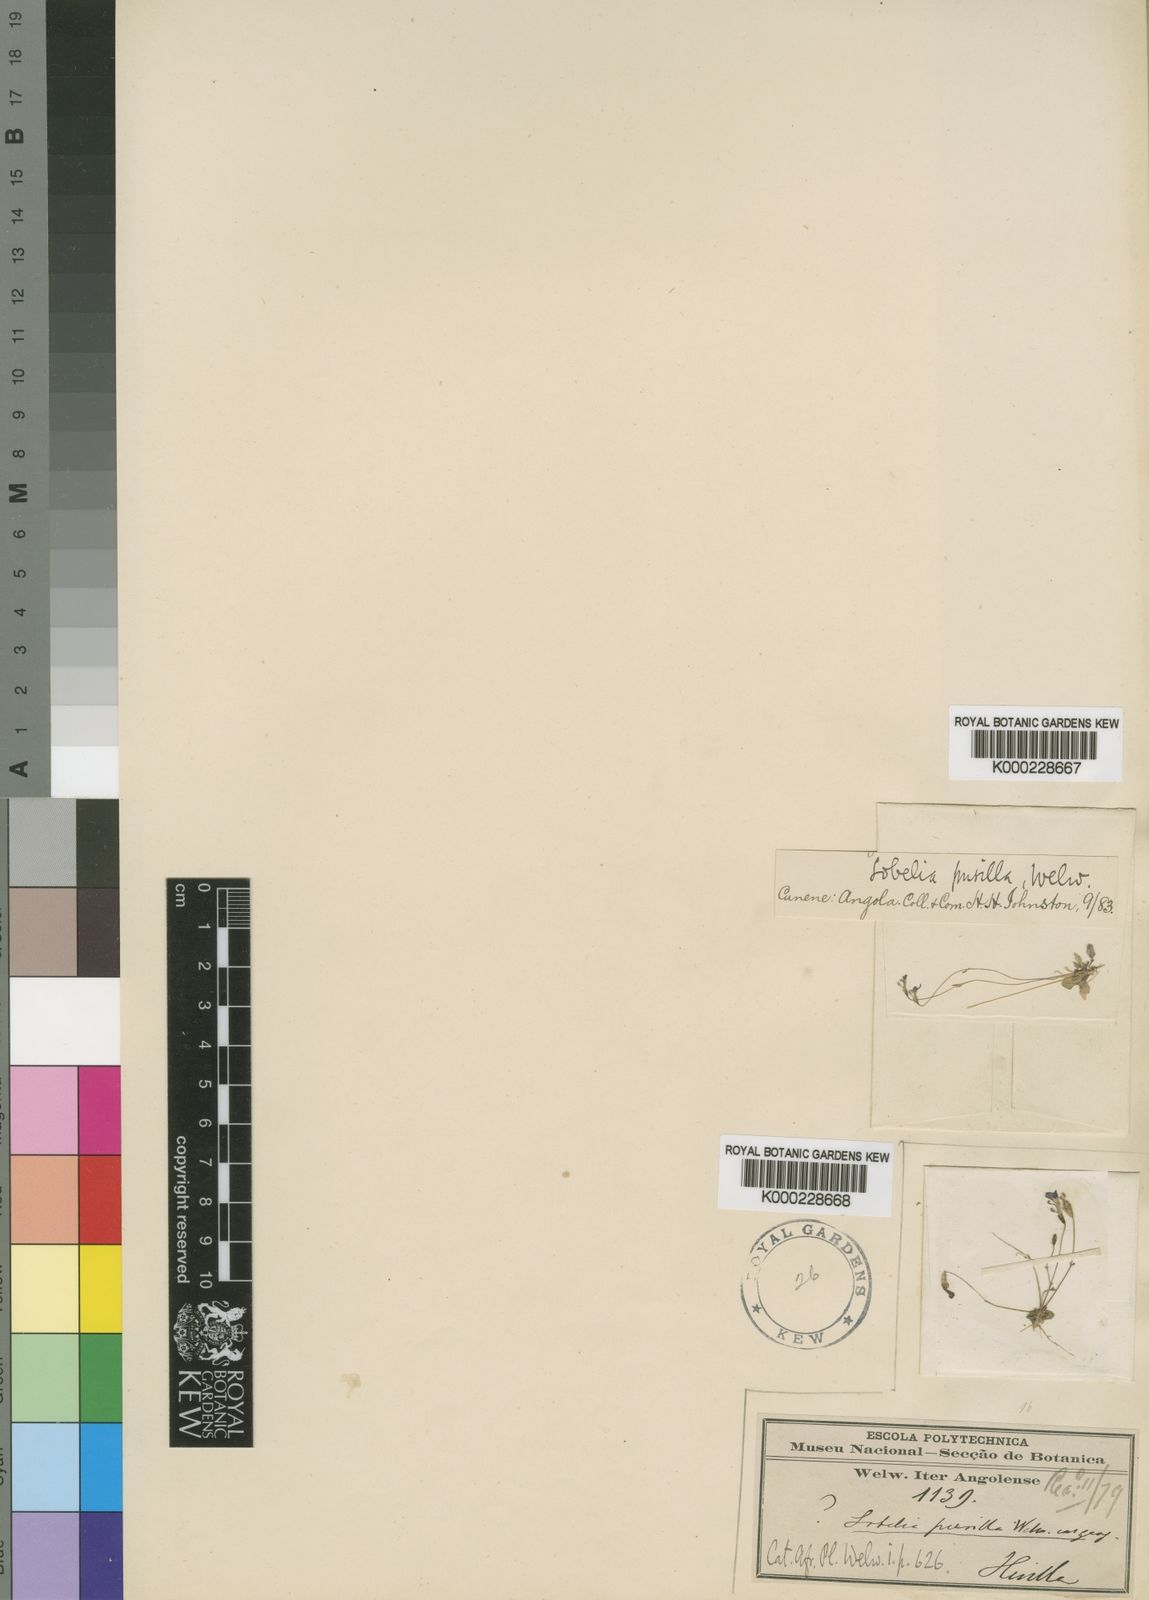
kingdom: Plantae
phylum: Tracheophyta
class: Magnoliopsida
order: Asterales
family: Campanulaceae
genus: Lobelia
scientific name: Lobelia
